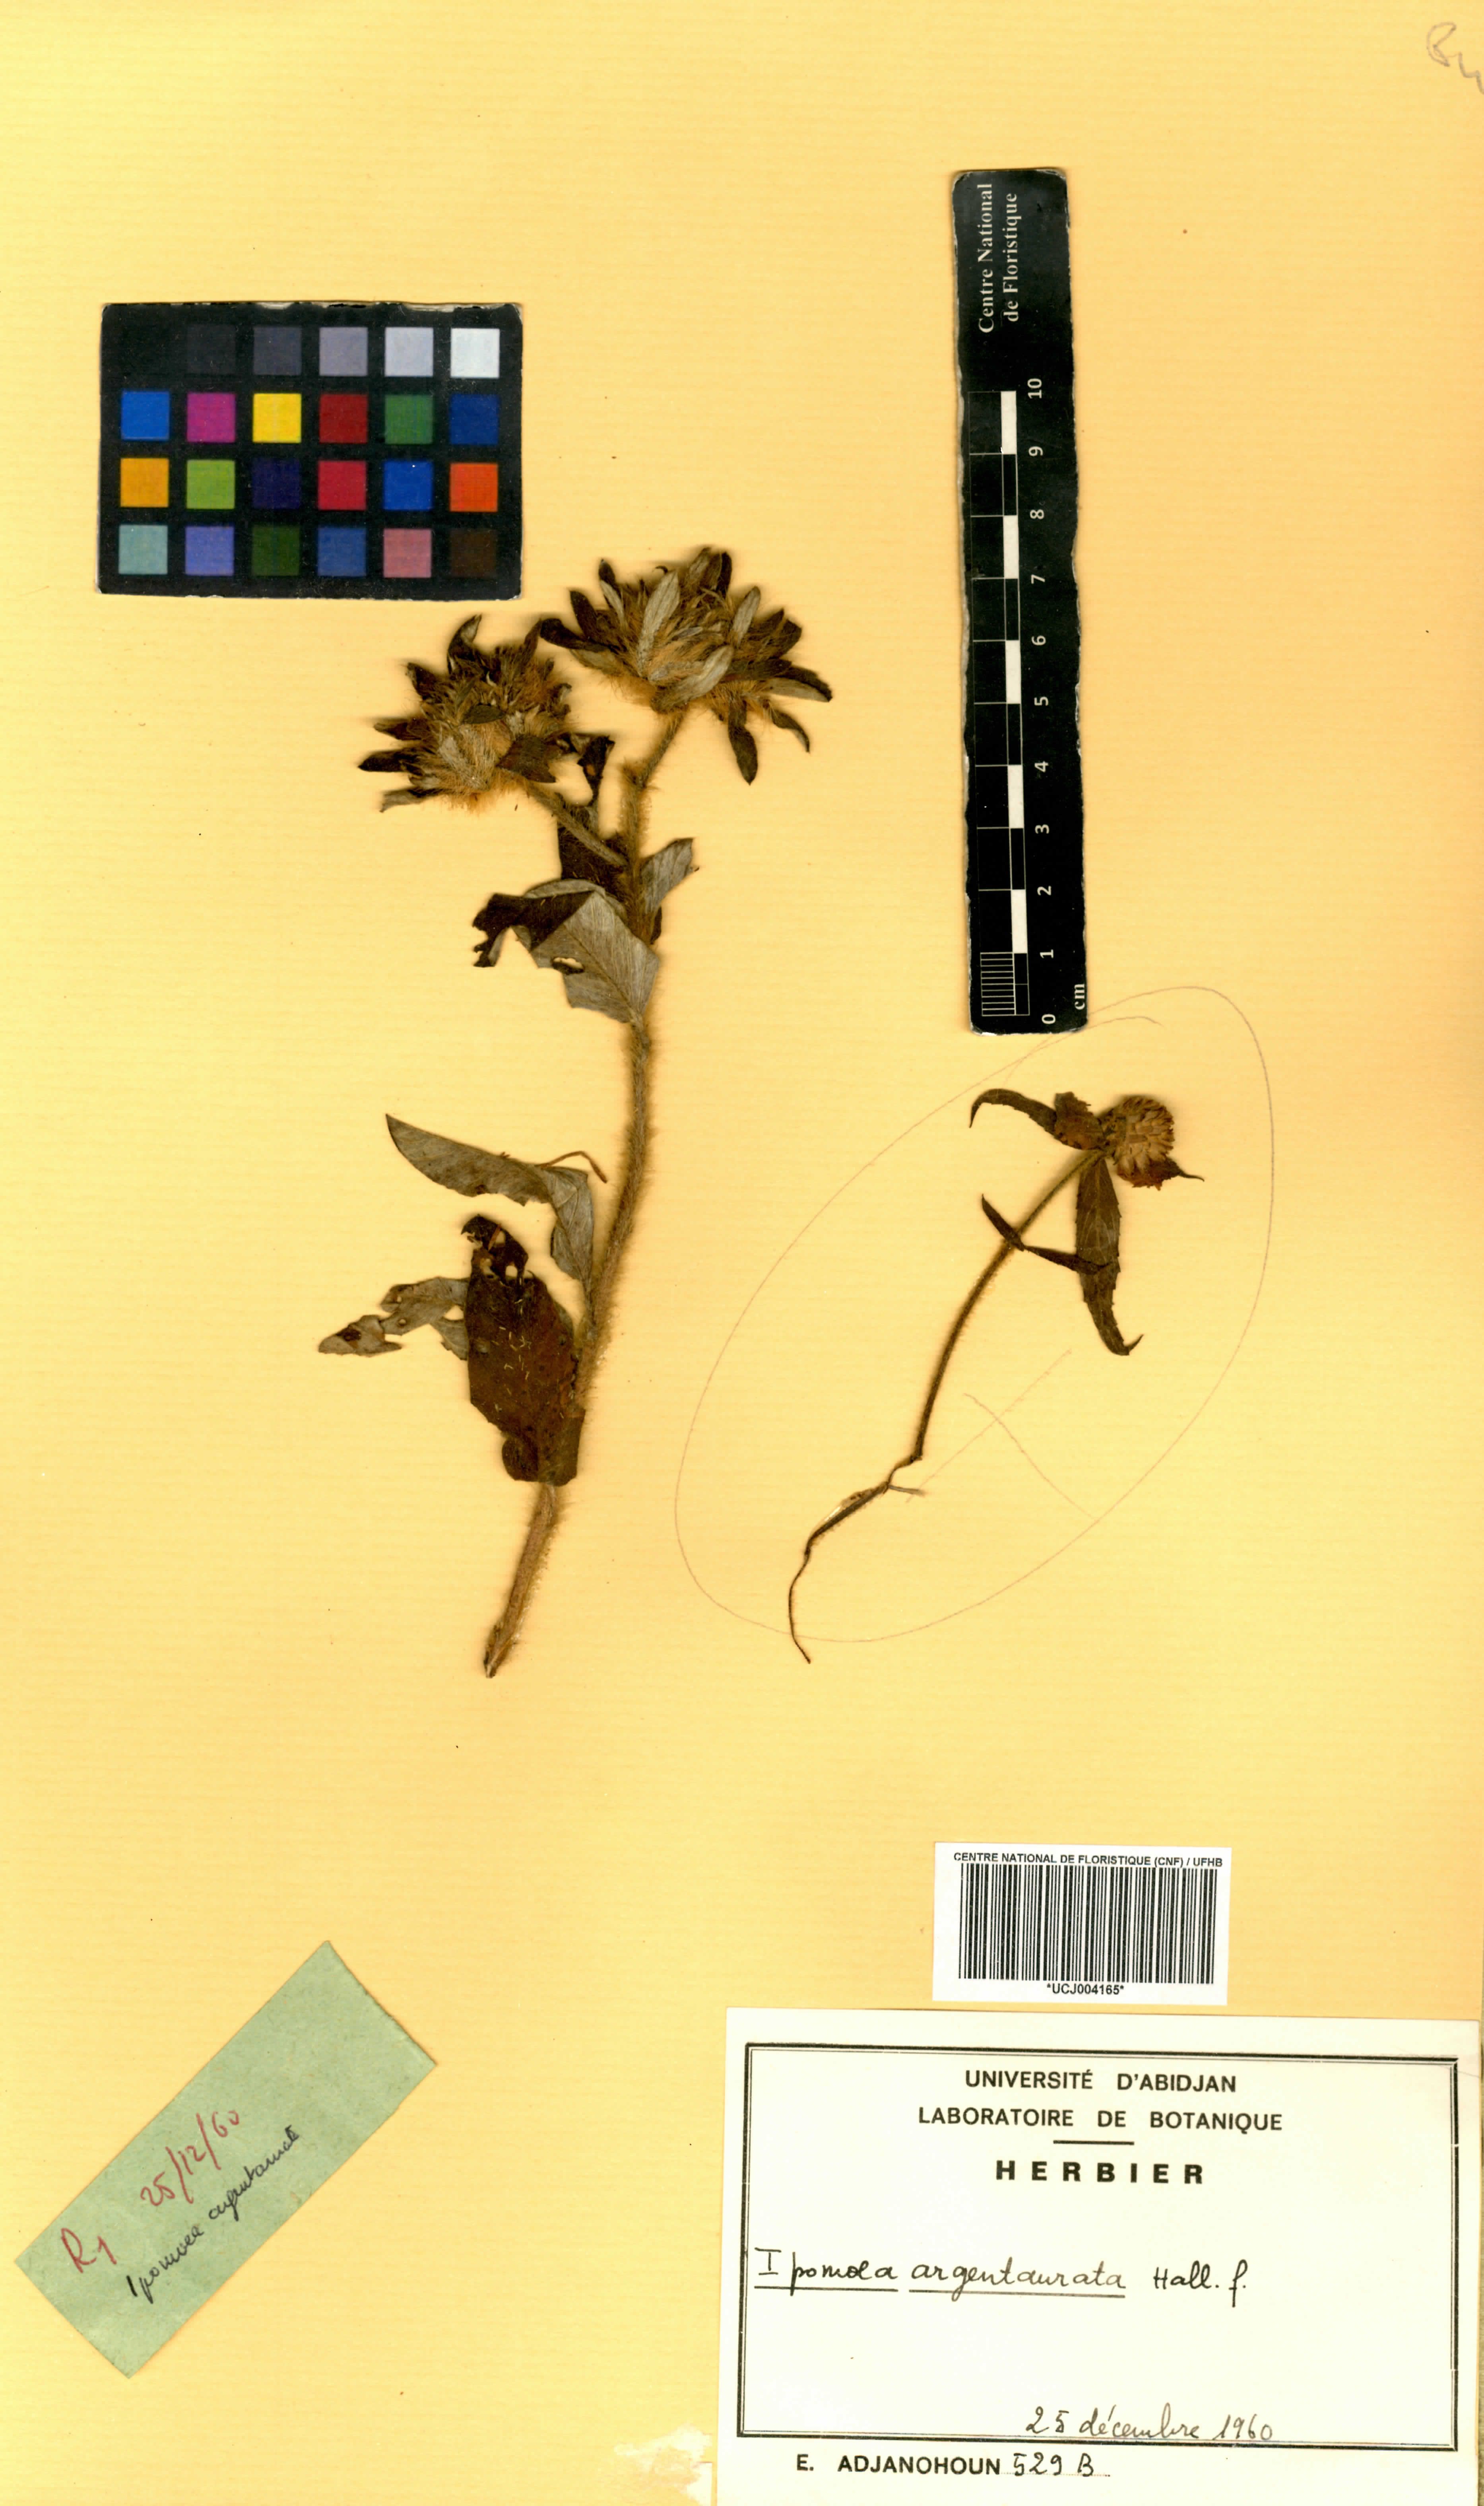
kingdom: Plantae
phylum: Tracheophyta
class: Magnoliopsida
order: Solanales
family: Convolvulaceae
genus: Ipomoea
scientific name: Ipomoea argentaurata
